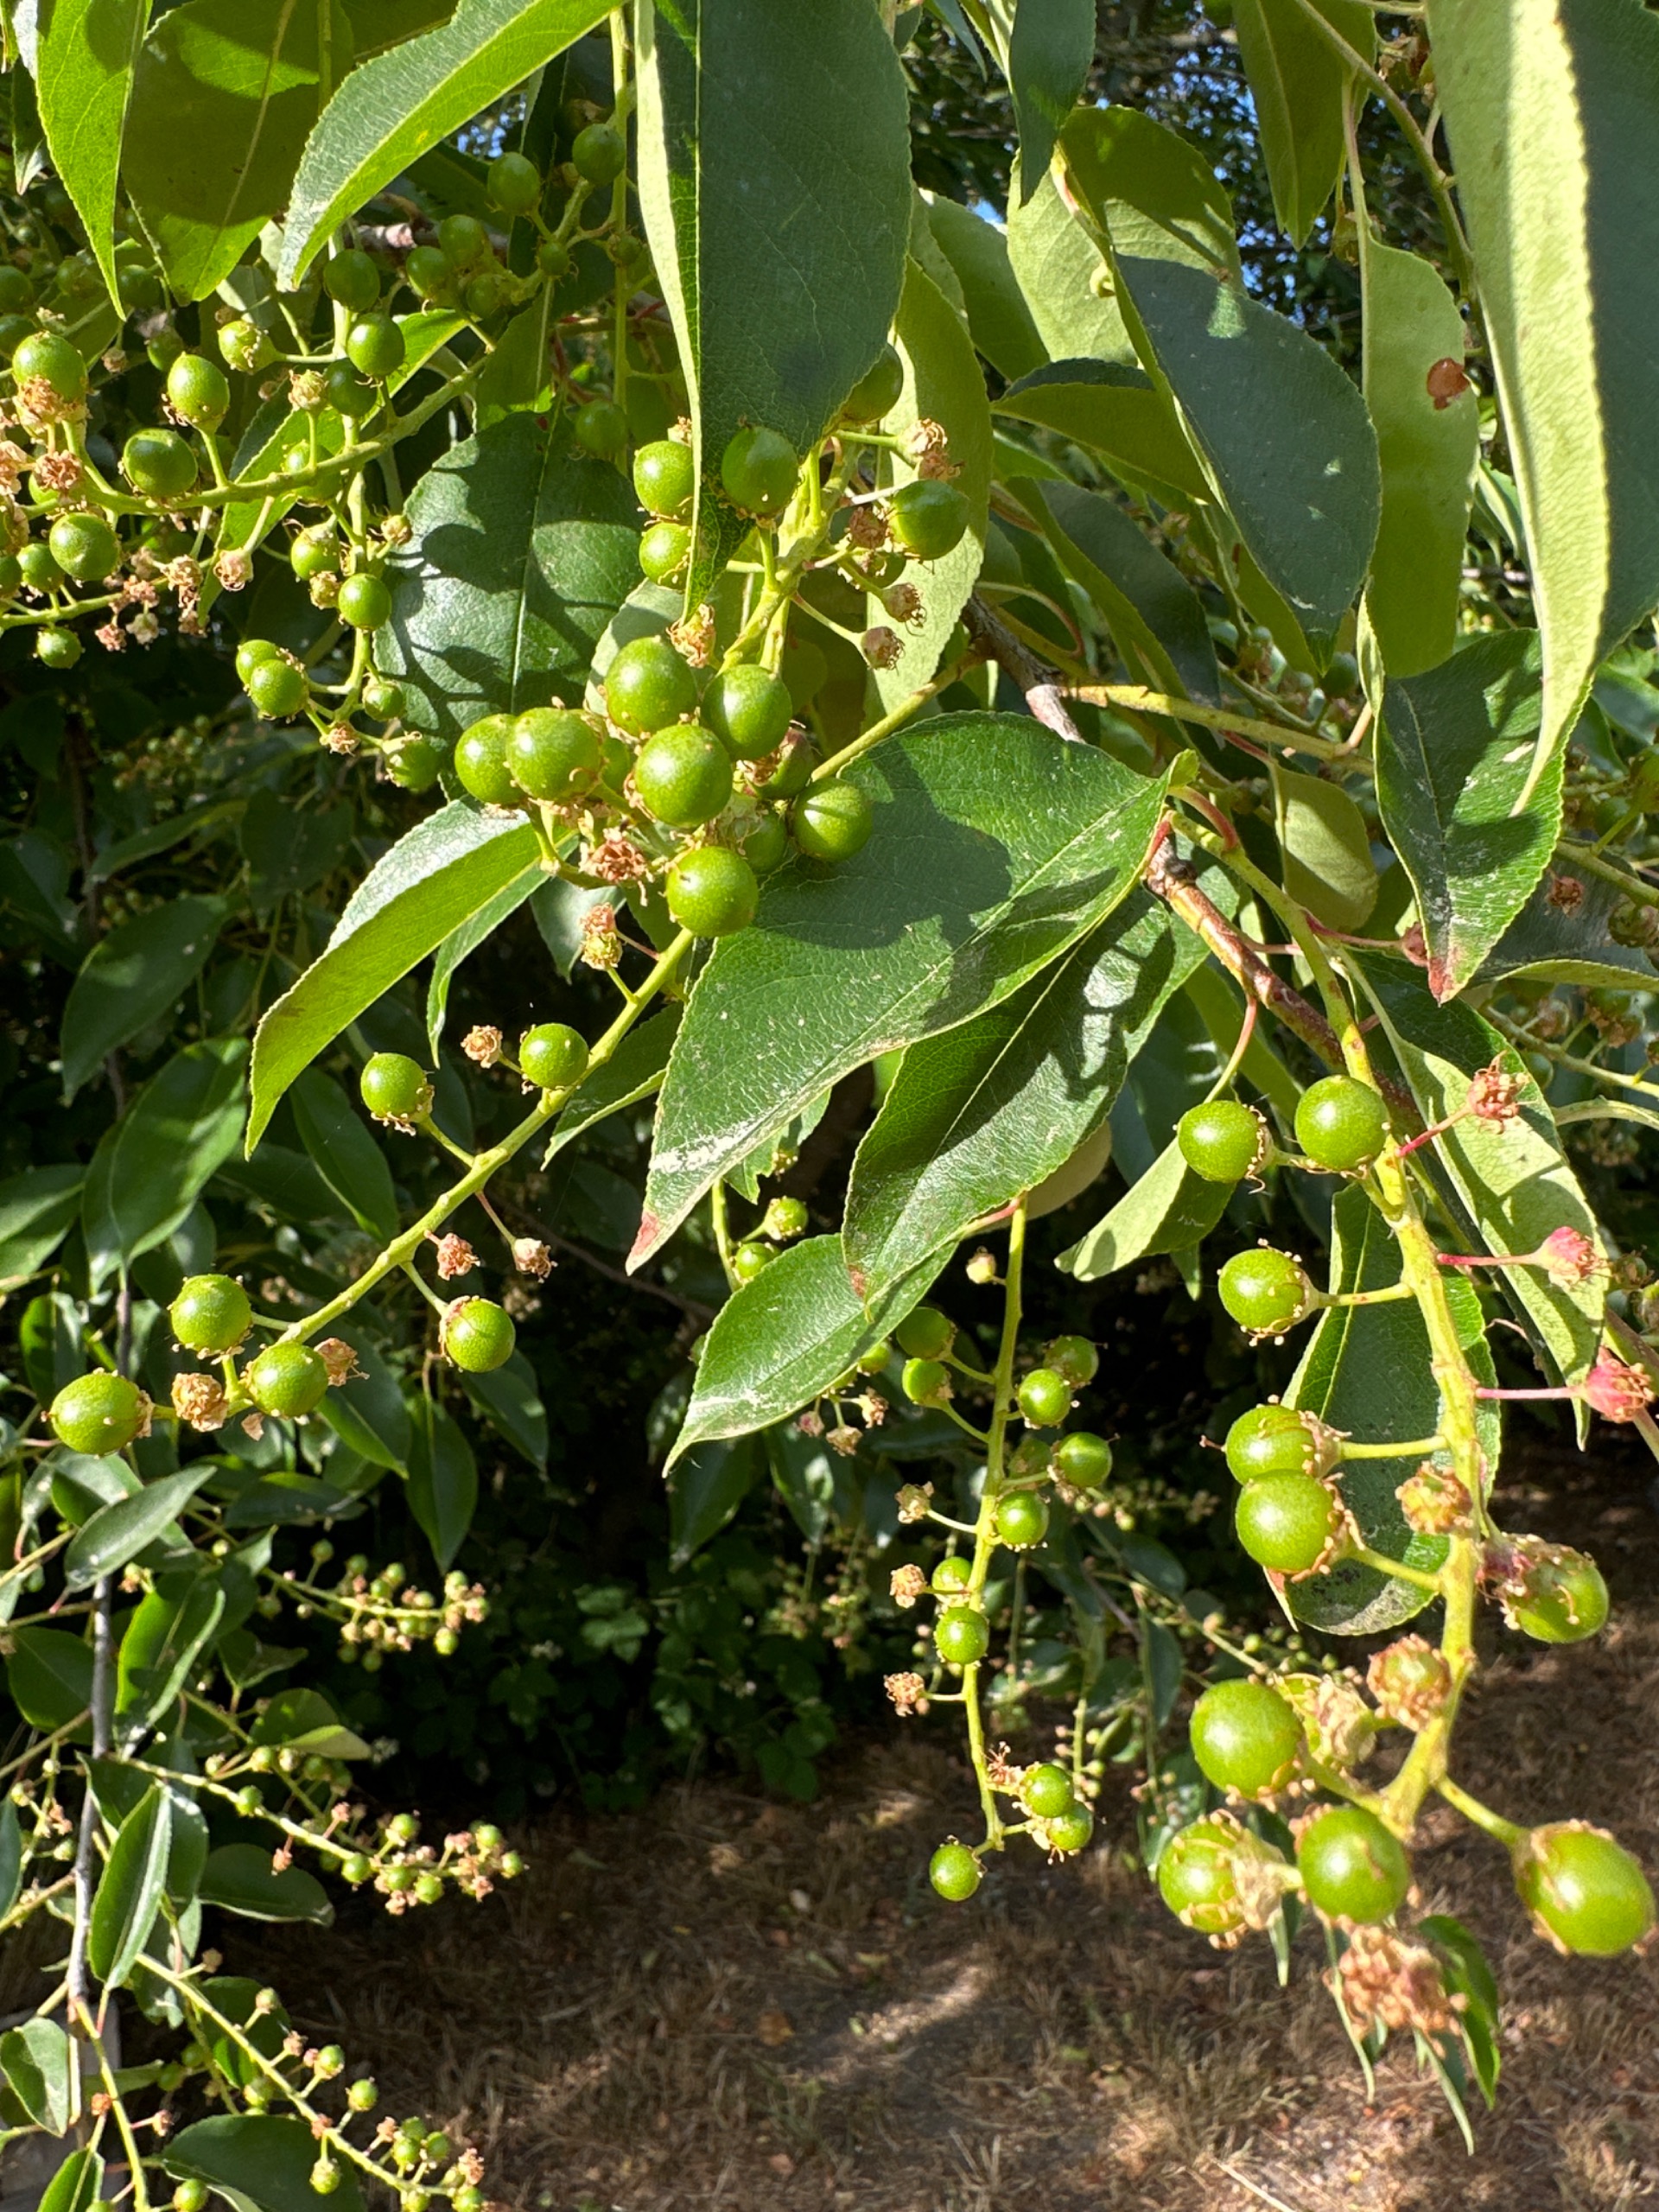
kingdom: Plantae
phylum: Tracheophyta
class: Magnoliopsida
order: Rosales
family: Rosaceae
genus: Prunus
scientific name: Prunus serotina
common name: Glansbladet hæg
